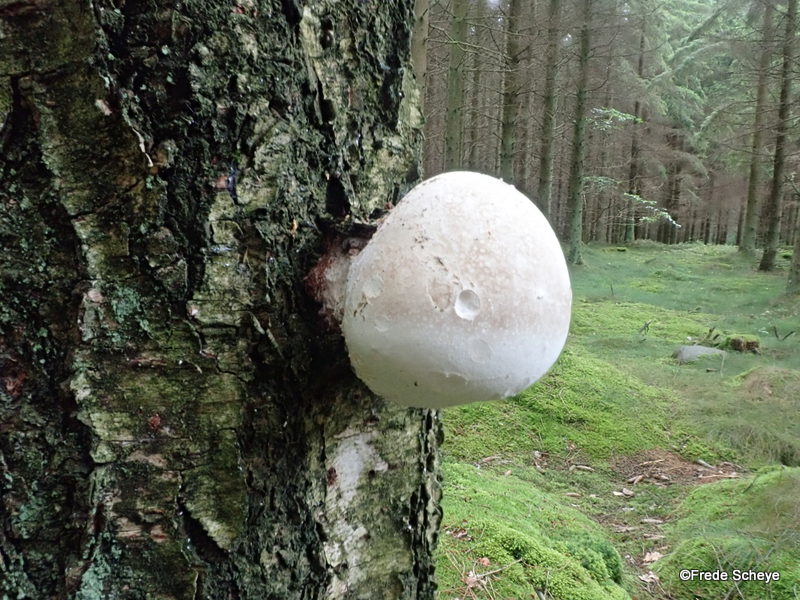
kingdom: Fungi
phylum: Basidiomycota
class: Agaricomycetes
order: Polyporales
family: Fomitopsidaceae
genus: Fomitopsis
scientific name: Fomitopsis betulina
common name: birkeporesvamp
